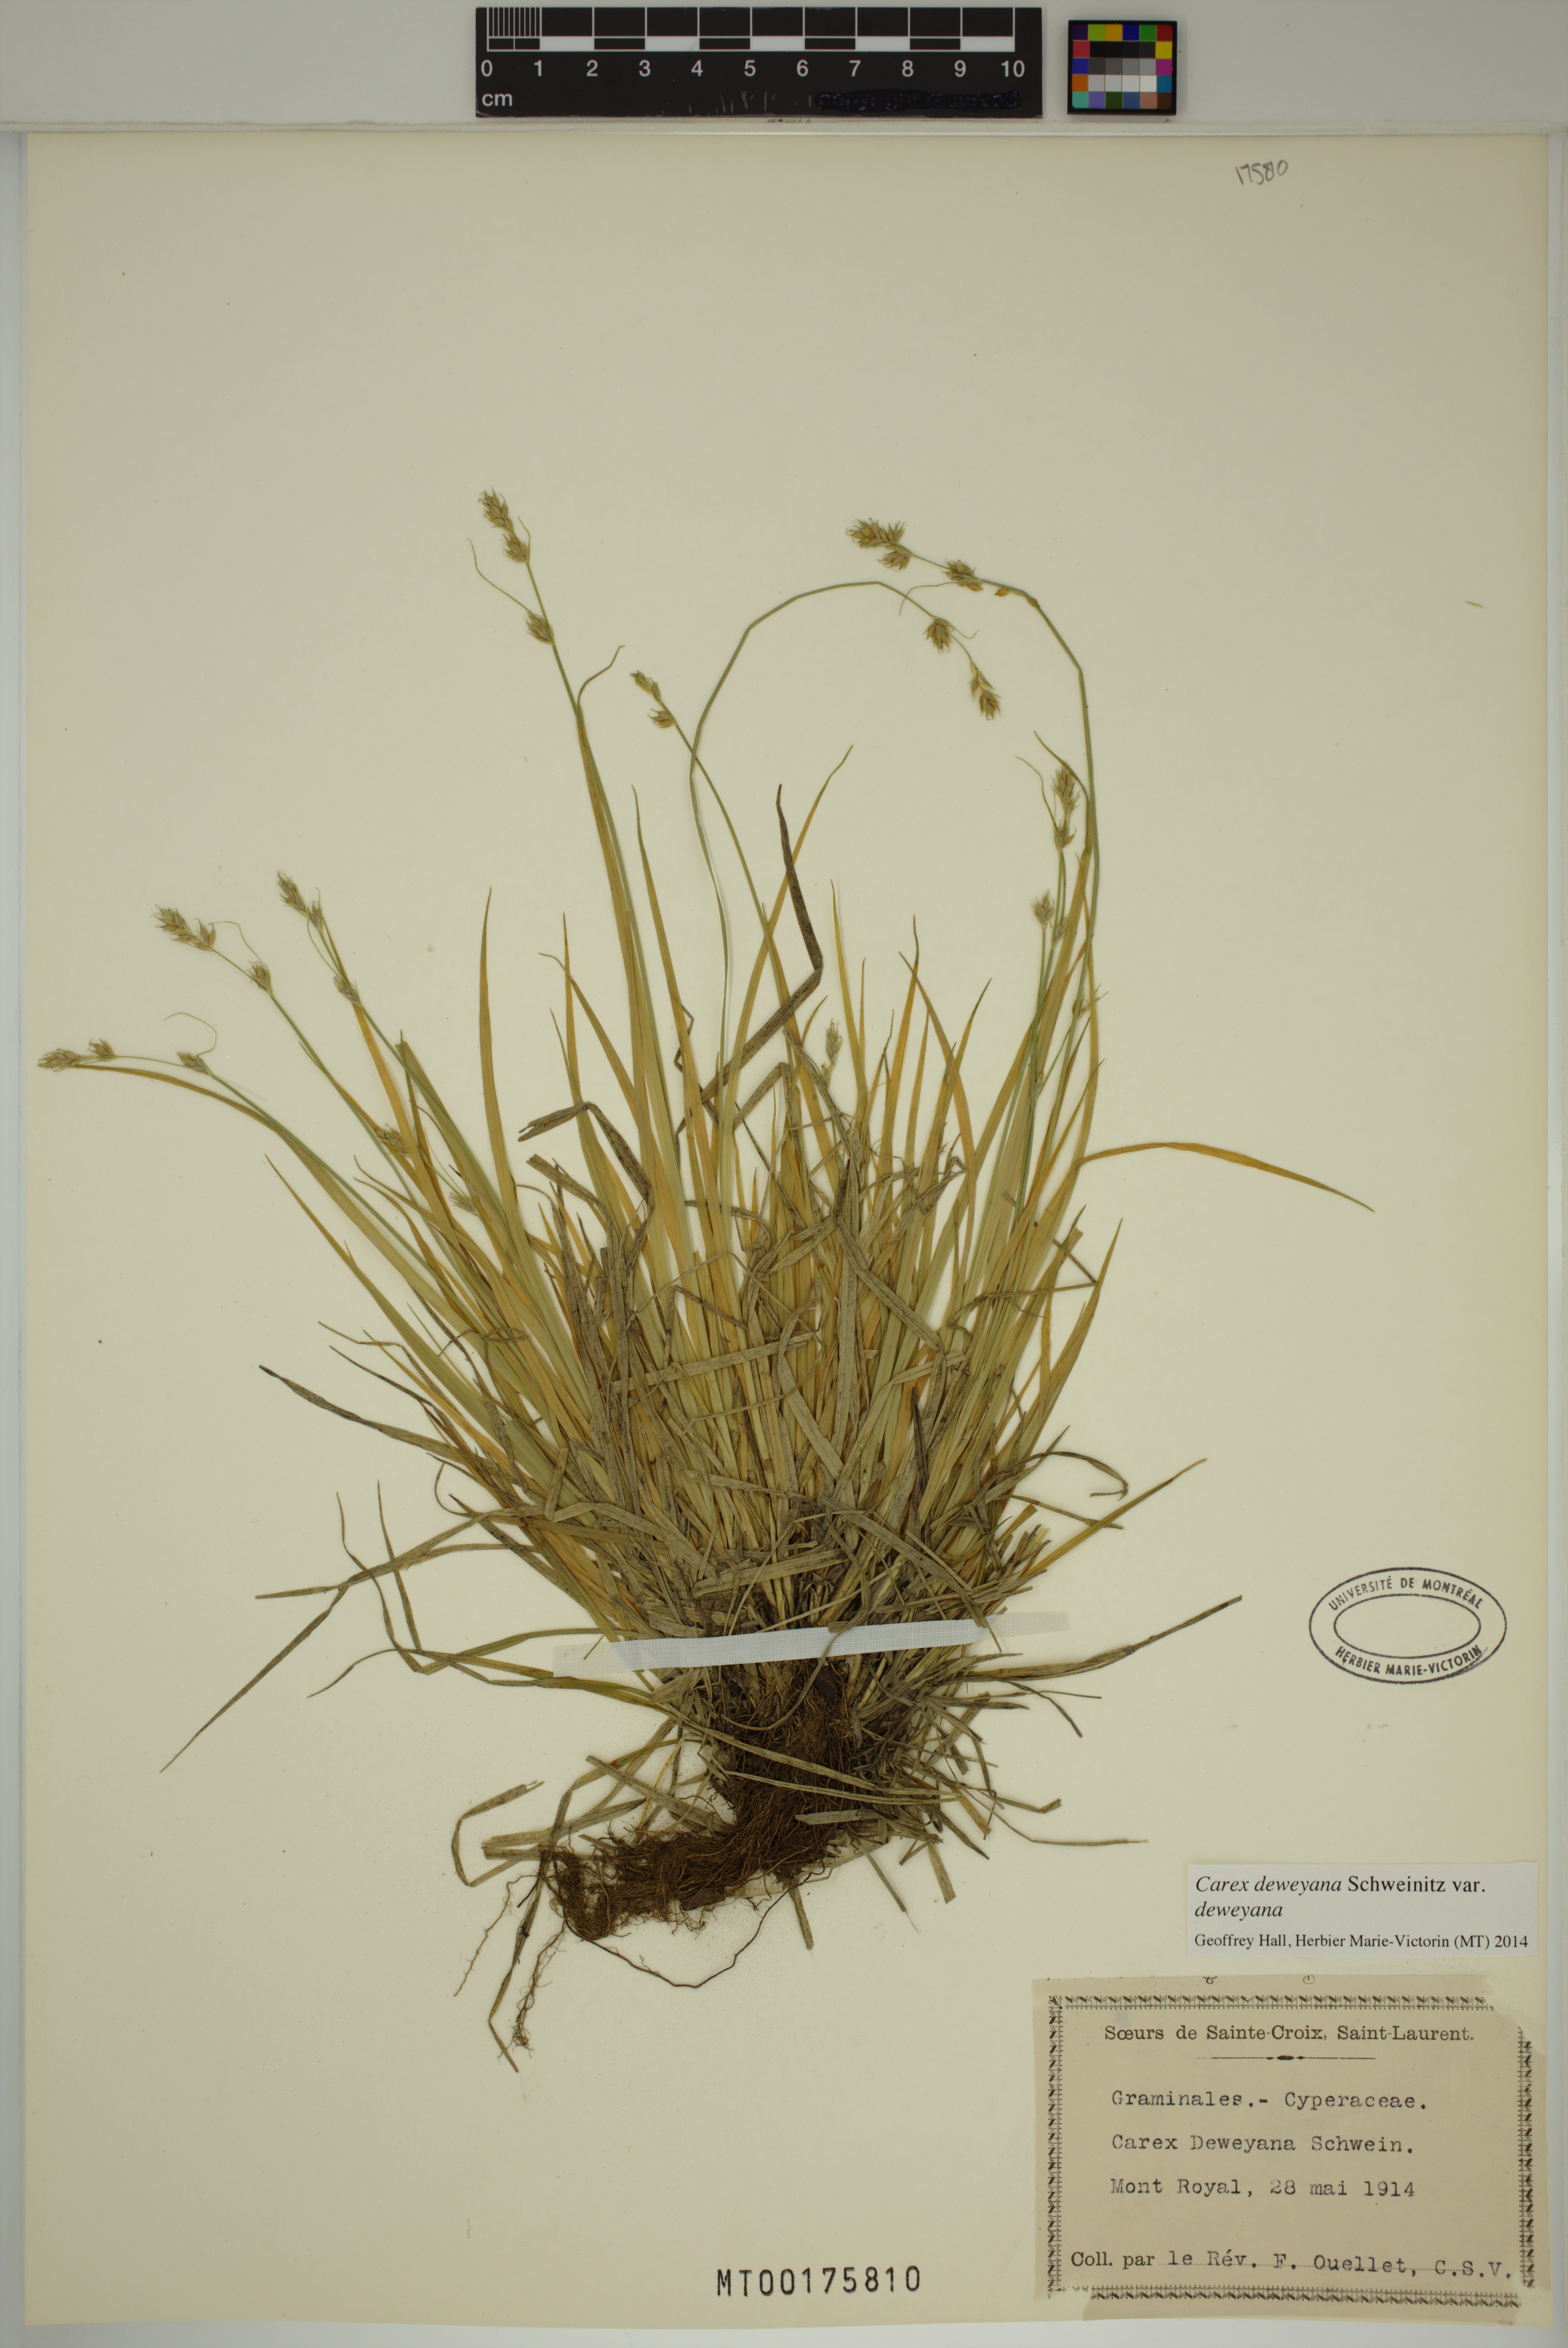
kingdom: Plantae
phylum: Tracheophyta
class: Liliopsida
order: Poales
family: Cyperaceae
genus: Carex
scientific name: Carex deweyana
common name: Dewey's sedge
